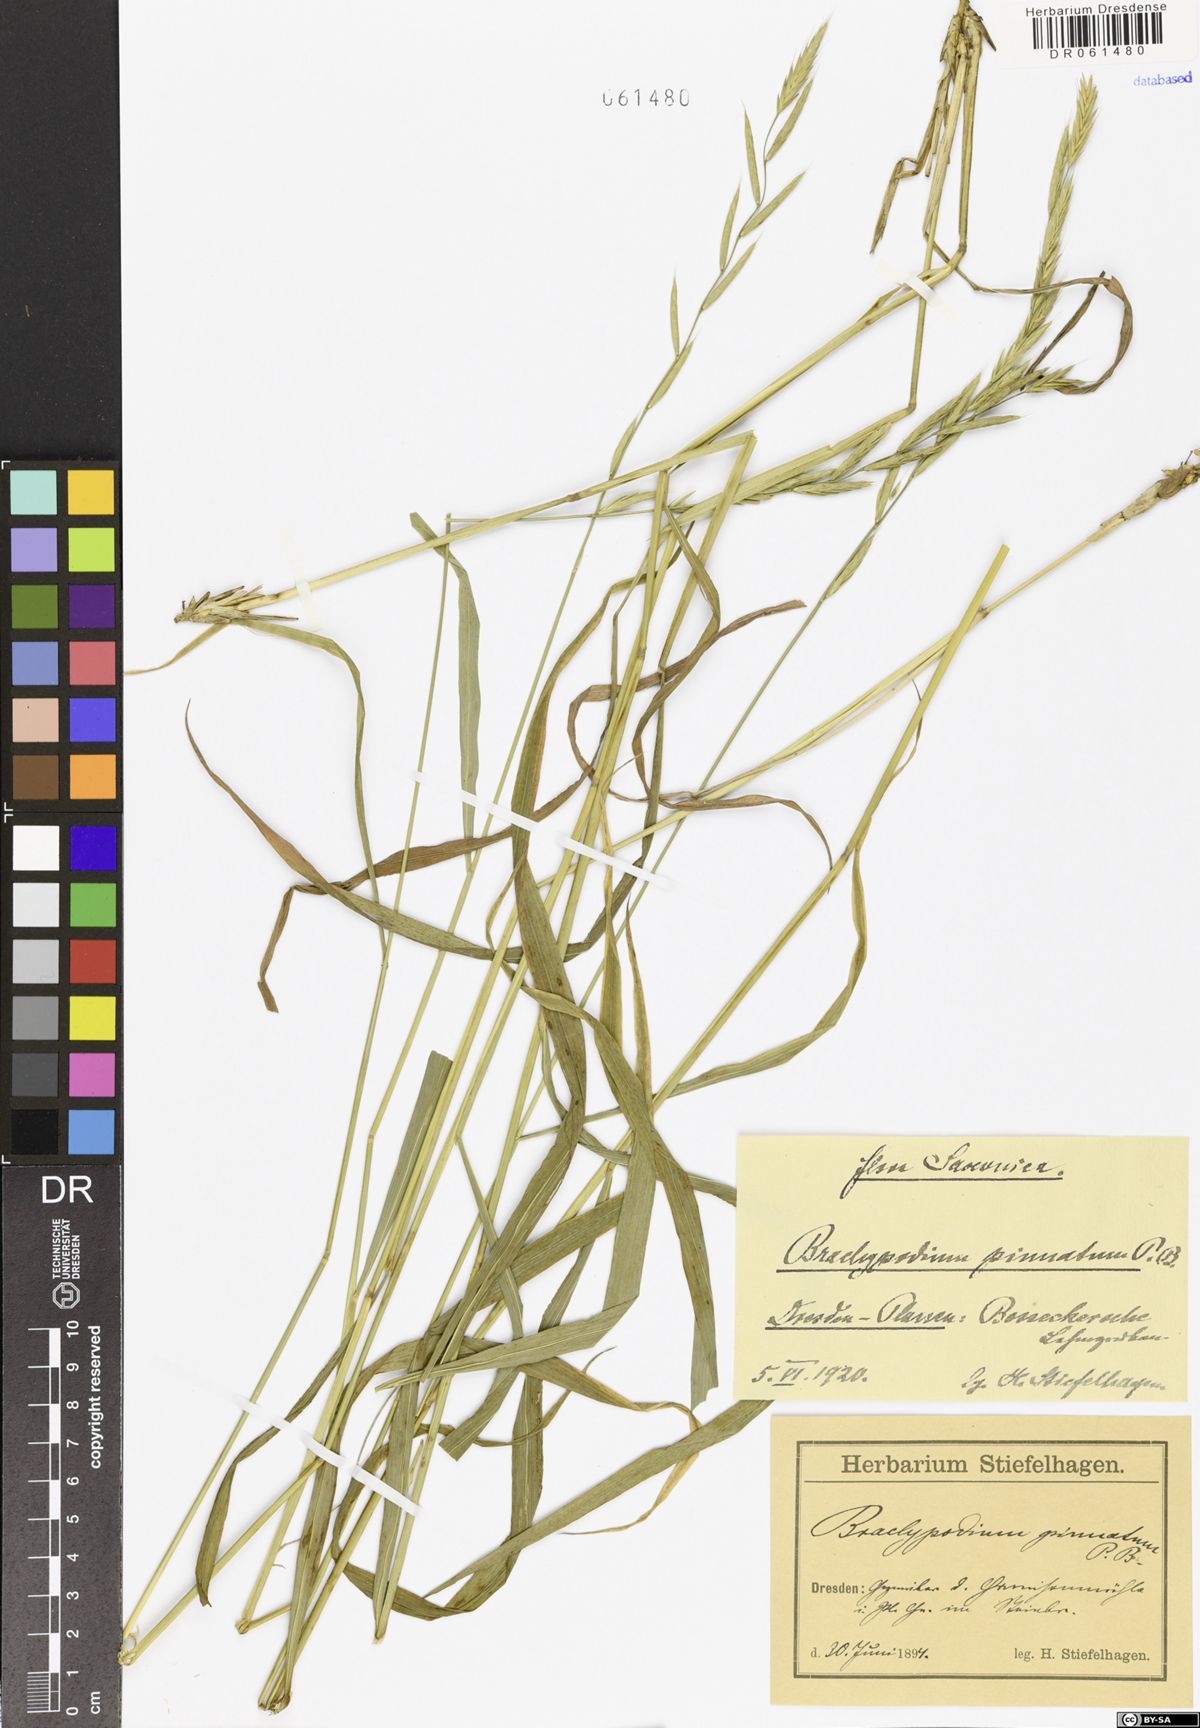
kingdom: Plantae
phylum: Tracheophyta
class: Liliopsida
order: Poales
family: Poaceae
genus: Brachypodium
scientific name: Brachypodium pinnatum
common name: Tor grass
